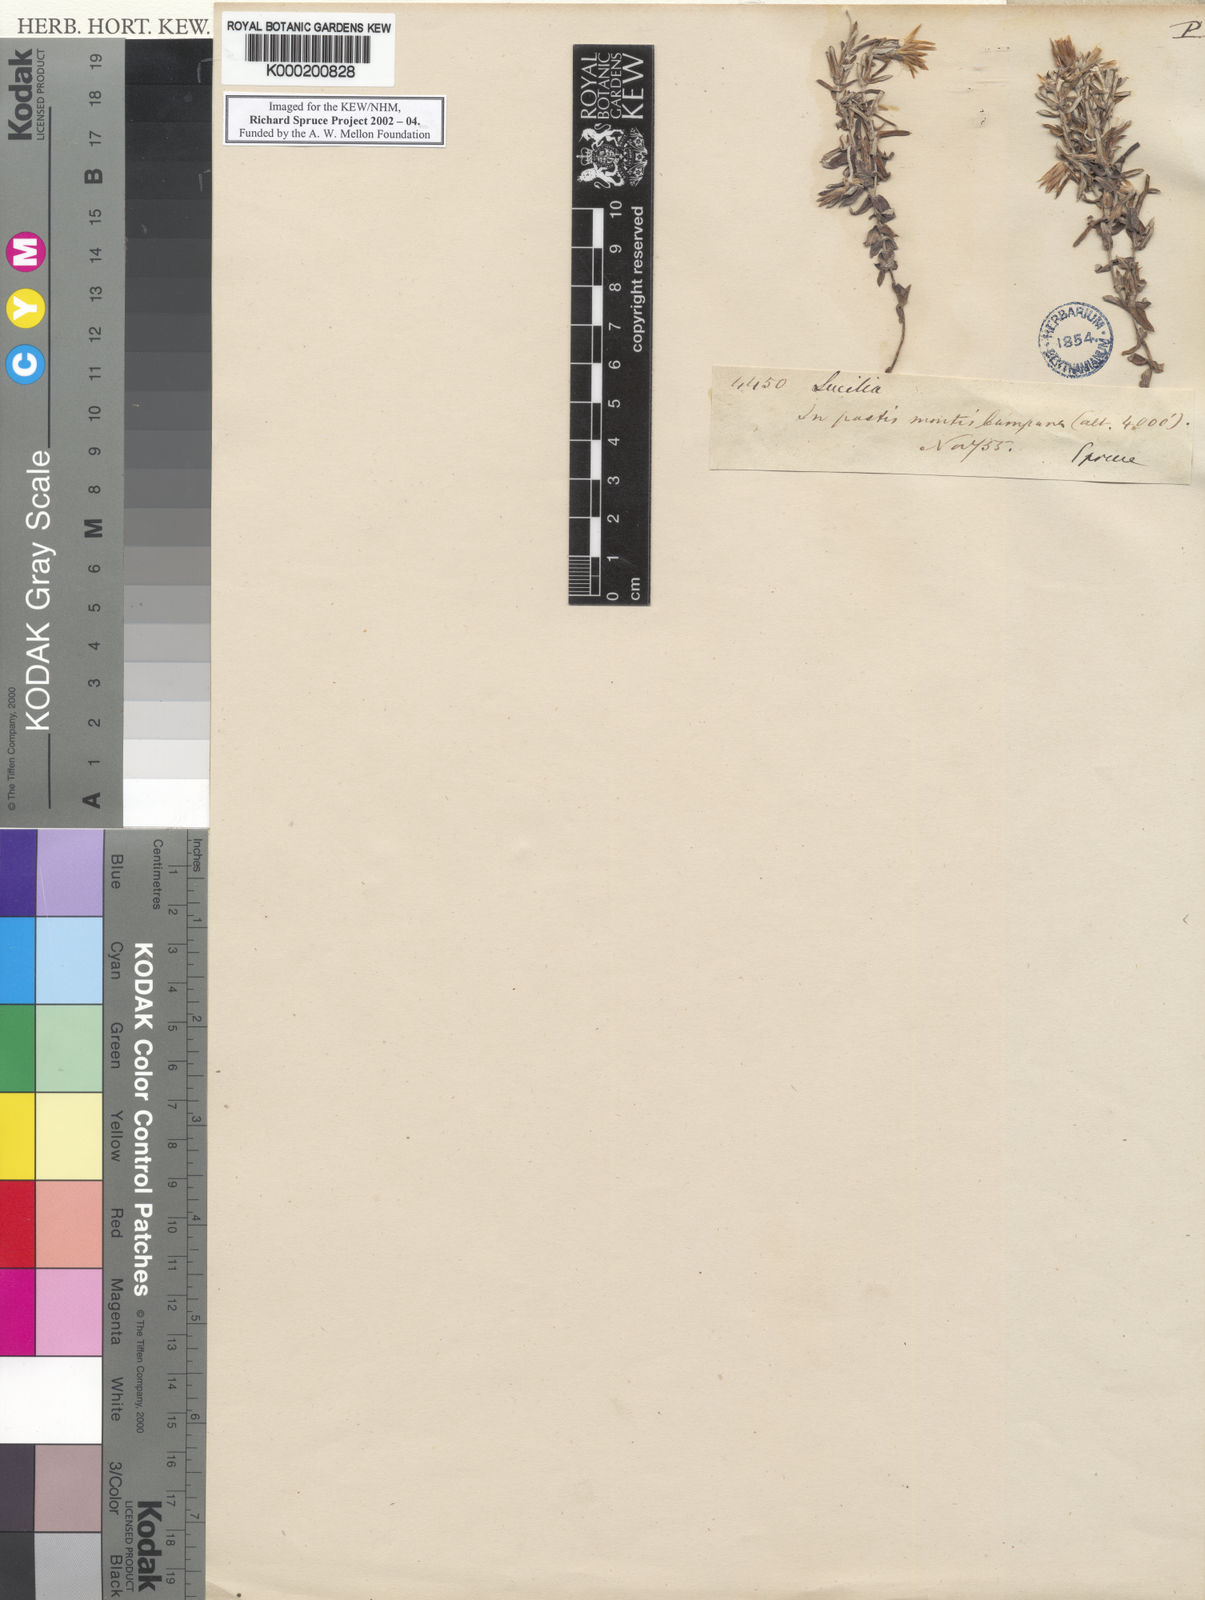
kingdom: Plantae
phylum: Tracheophyta
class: Magnoliopsida
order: Asterales
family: Asteraceae
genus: Lucilia
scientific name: Lucilia
